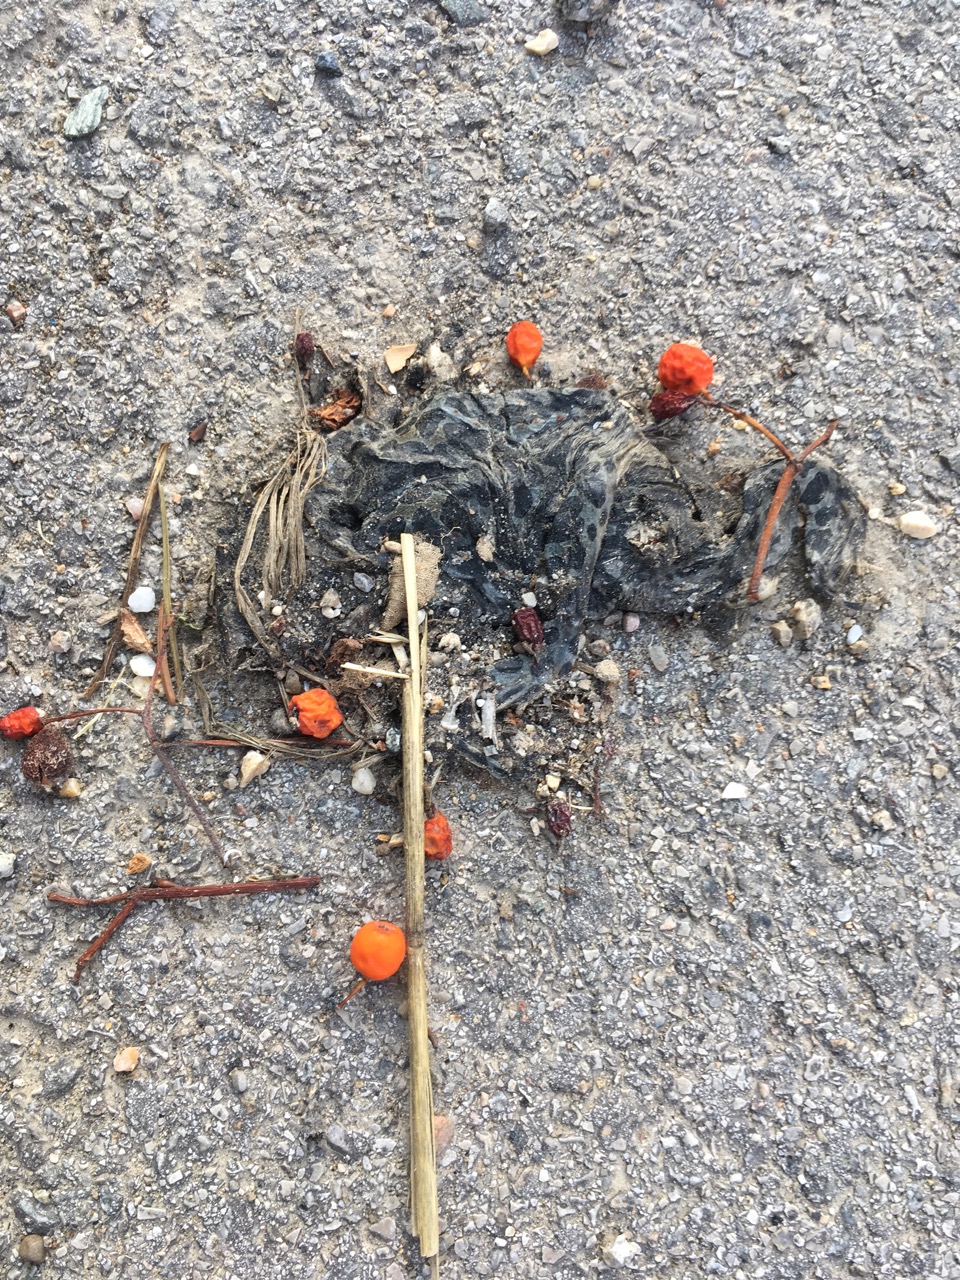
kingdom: Animalia
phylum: Chordata
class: Amphibia
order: Anura
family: Bufonidae
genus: Bufotes
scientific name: Bufotes viridis
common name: European green toad
